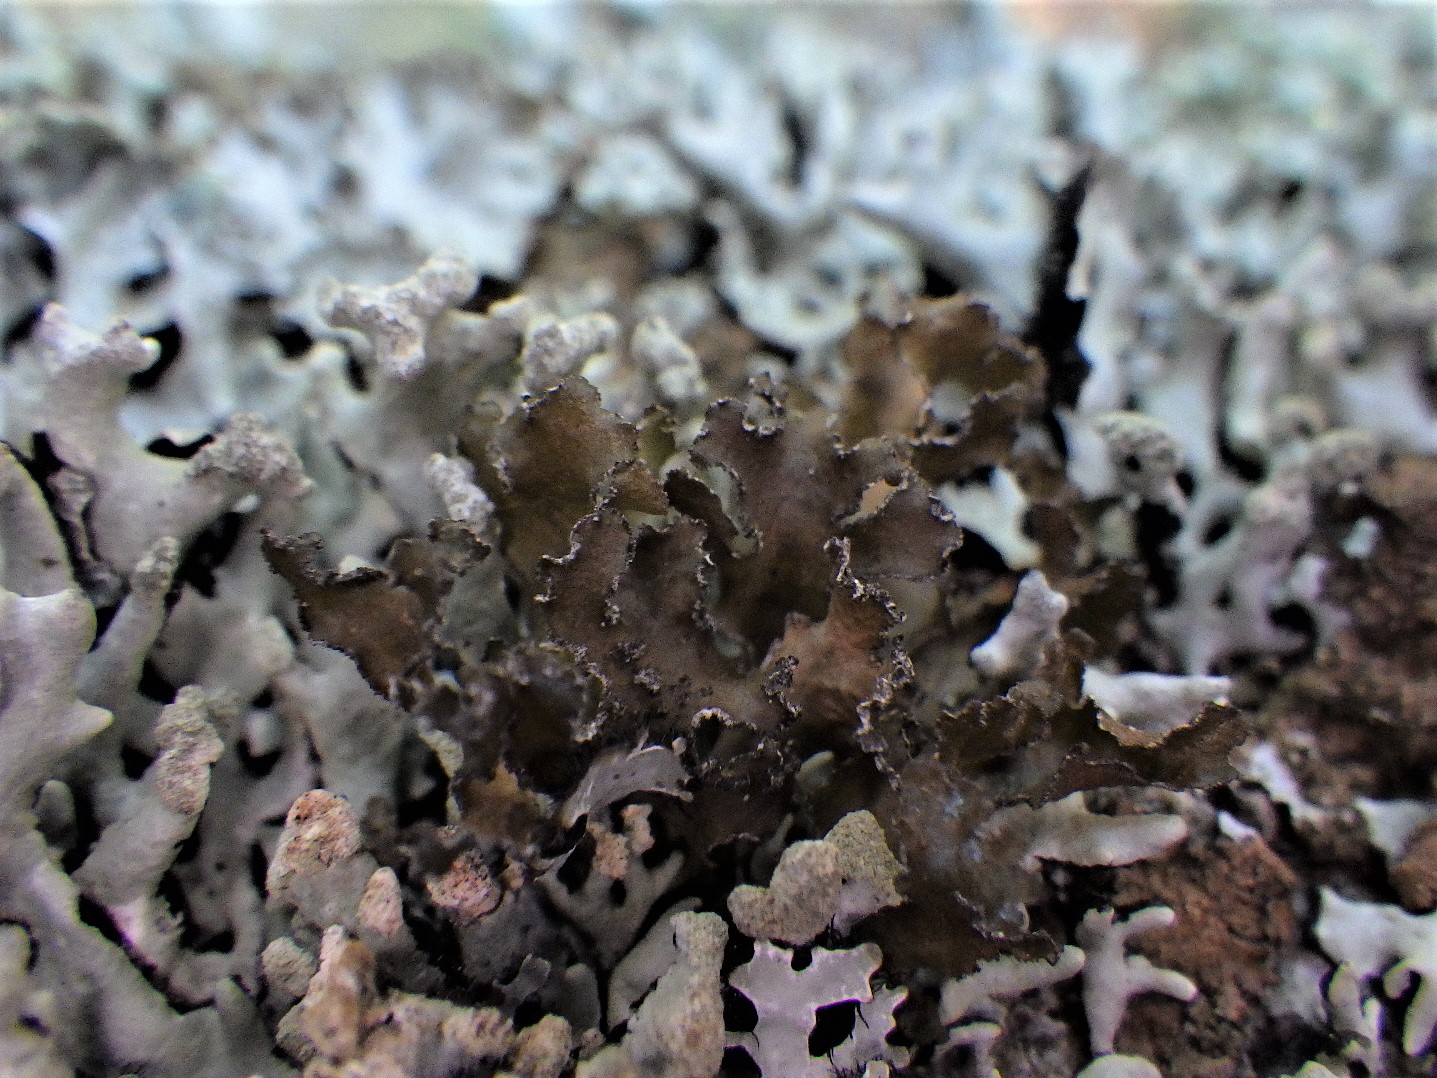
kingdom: Fungi
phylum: Ascomycota
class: Lecanoromycetes
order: Lecanorales
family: Parmeliaceae
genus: Nephromopsis
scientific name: Nephromopsis chlorophylla
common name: olivenbrun kruslav
